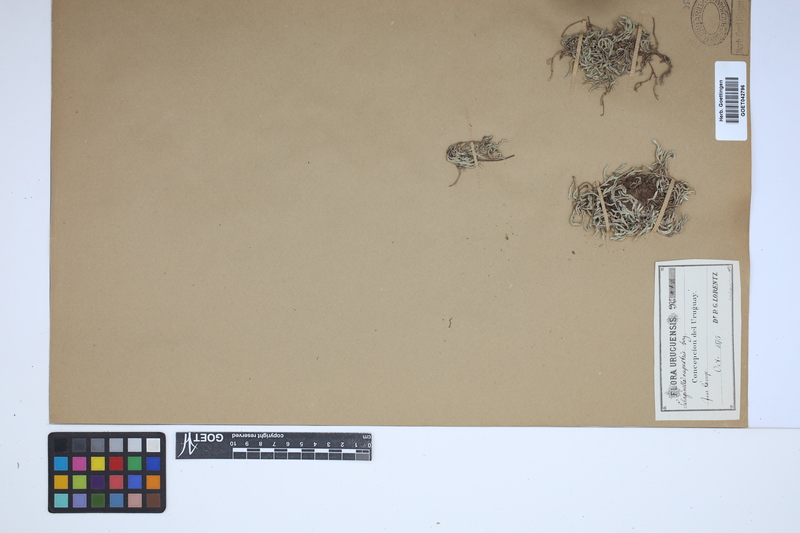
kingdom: Plantae
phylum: Tracheophyta
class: Lycopodiopsida
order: Selaginellales
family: Selaginellaceae
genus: Selaginella
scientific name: Selaginella rupestris
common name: Dwarf spikemoss
